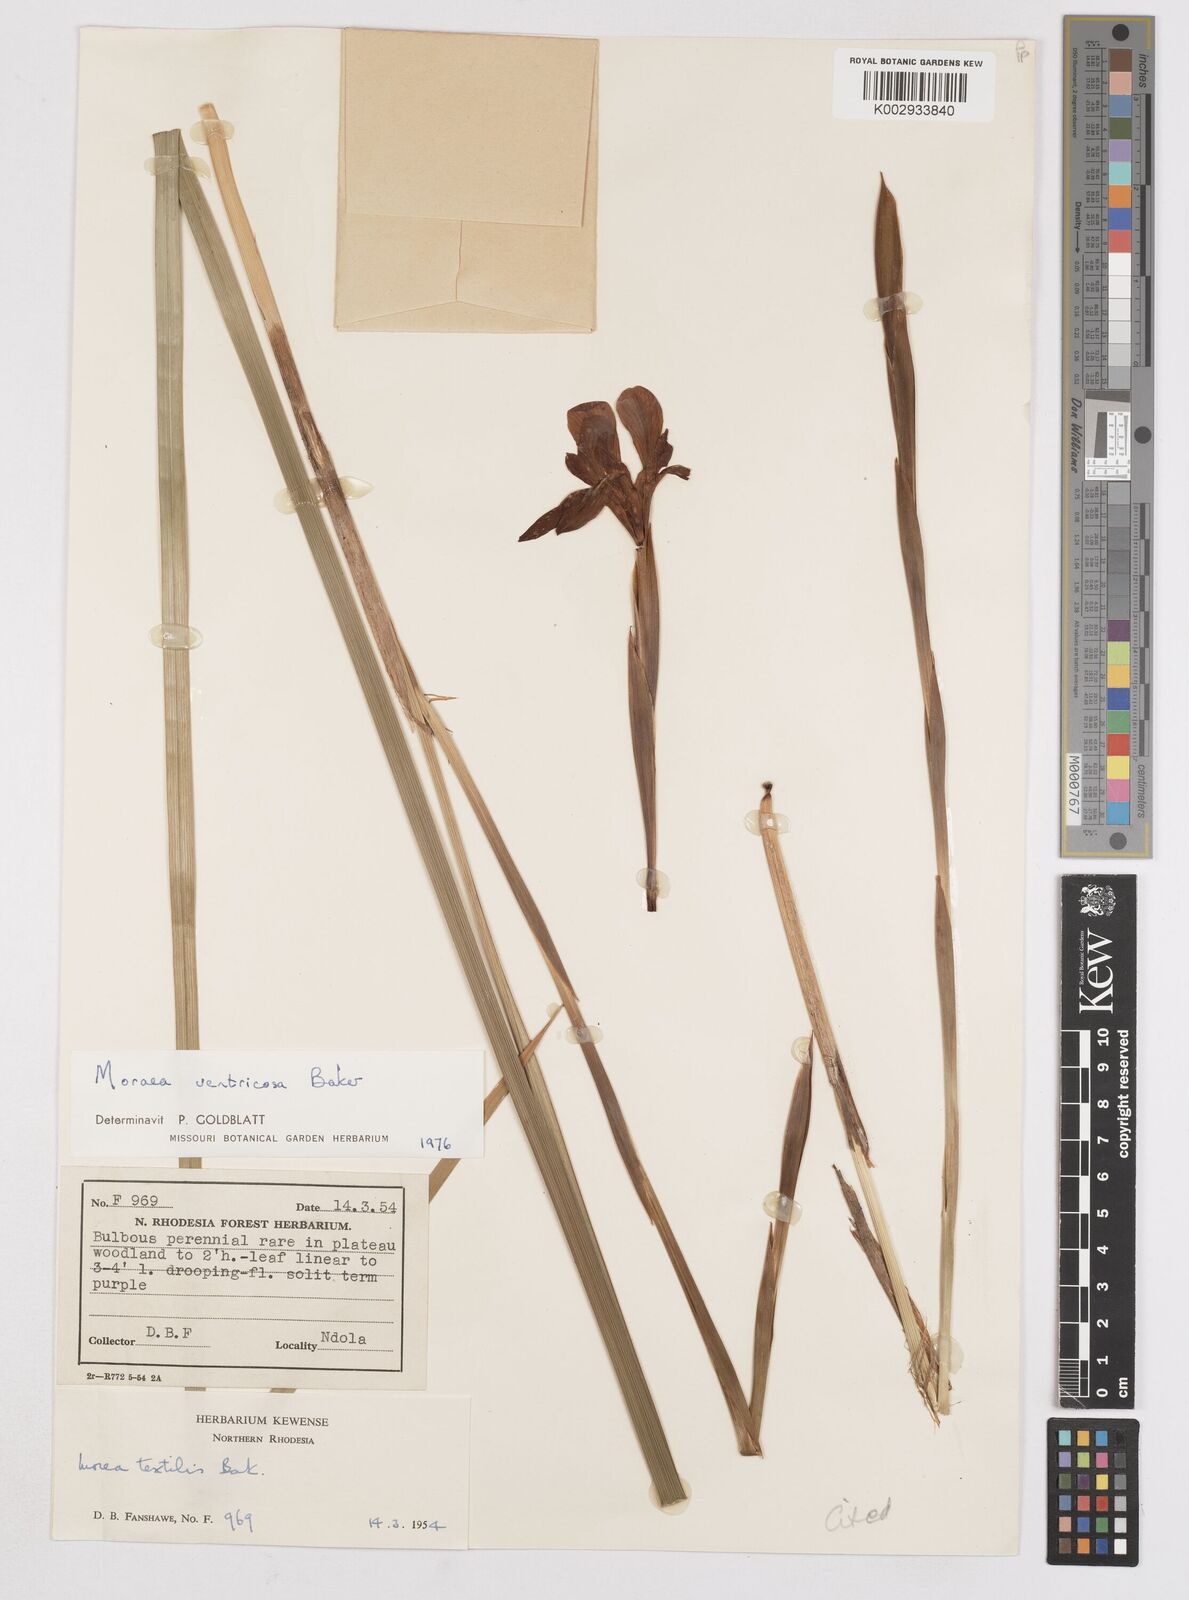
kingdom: Plantae
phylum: Tracheophyta
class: Liliopsida
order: Asparagales
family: Iridaceae
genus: Moraea
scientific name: Moraea ventricosa
